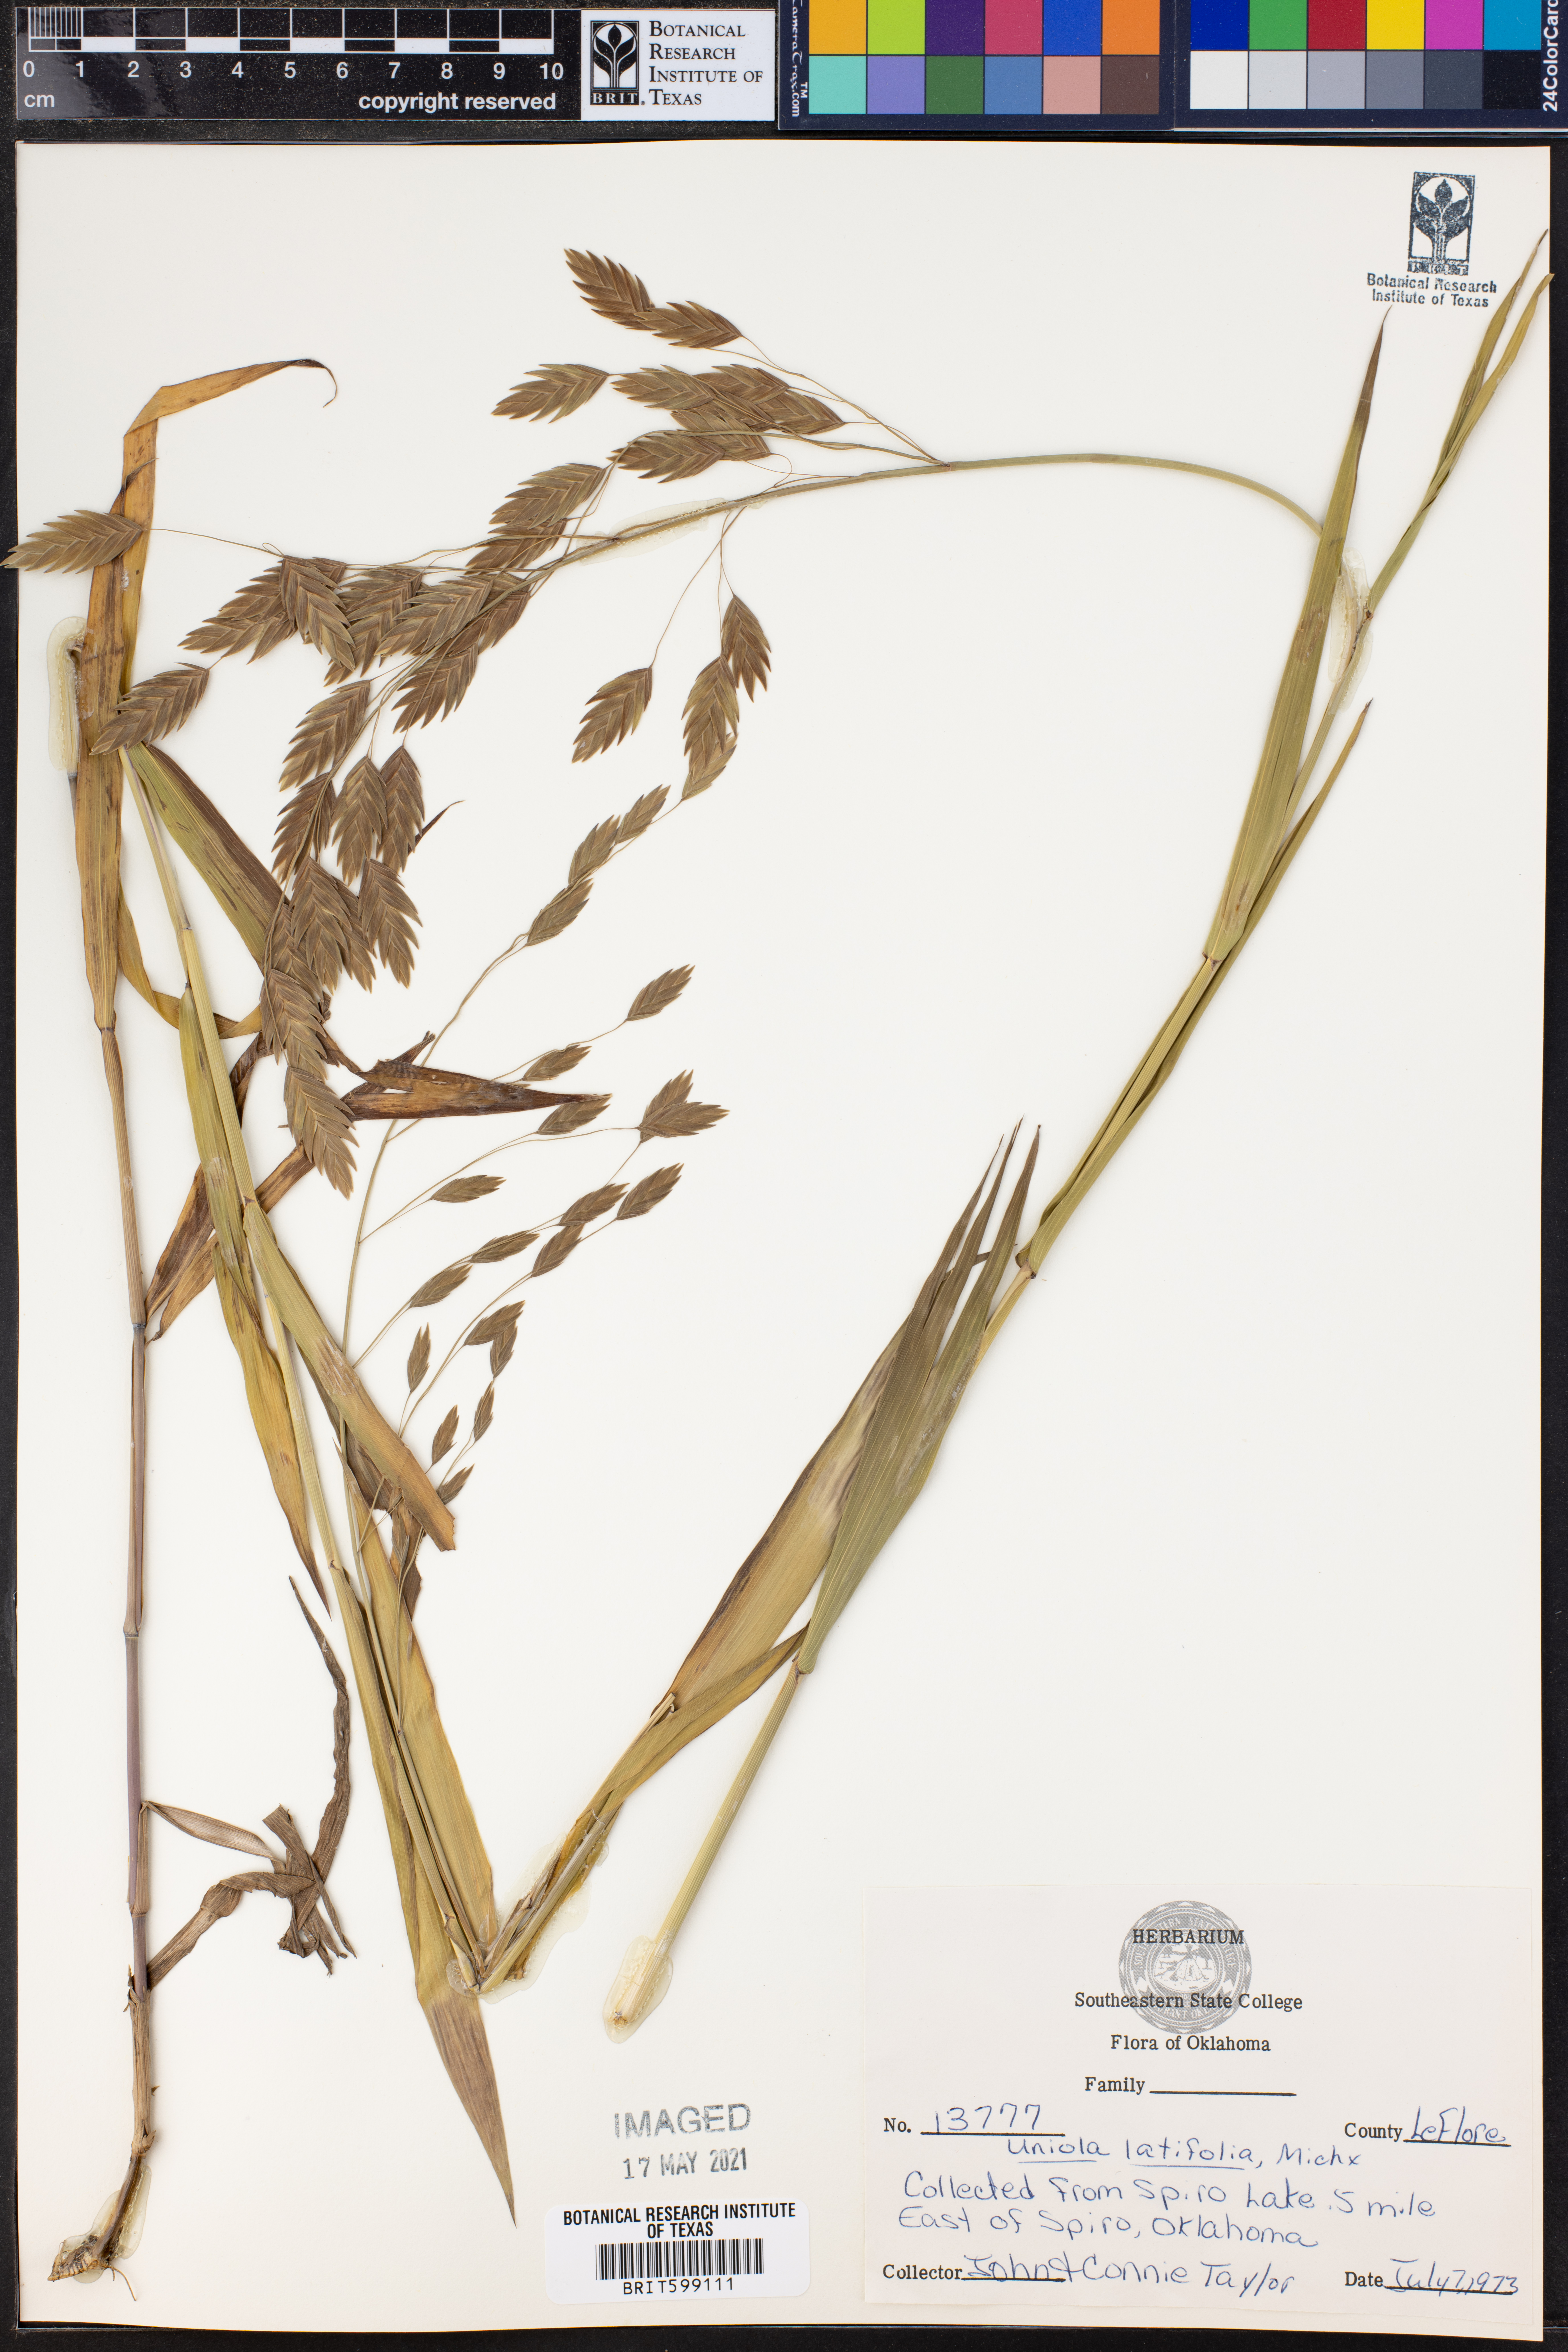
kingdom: Plantae
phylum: Tracheophyta
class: Liliopsida
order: Poales
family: Poaceae
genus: Chasmanthium
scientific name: Chasmanthium latifolium
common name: Broad-leaved chasmanthium
